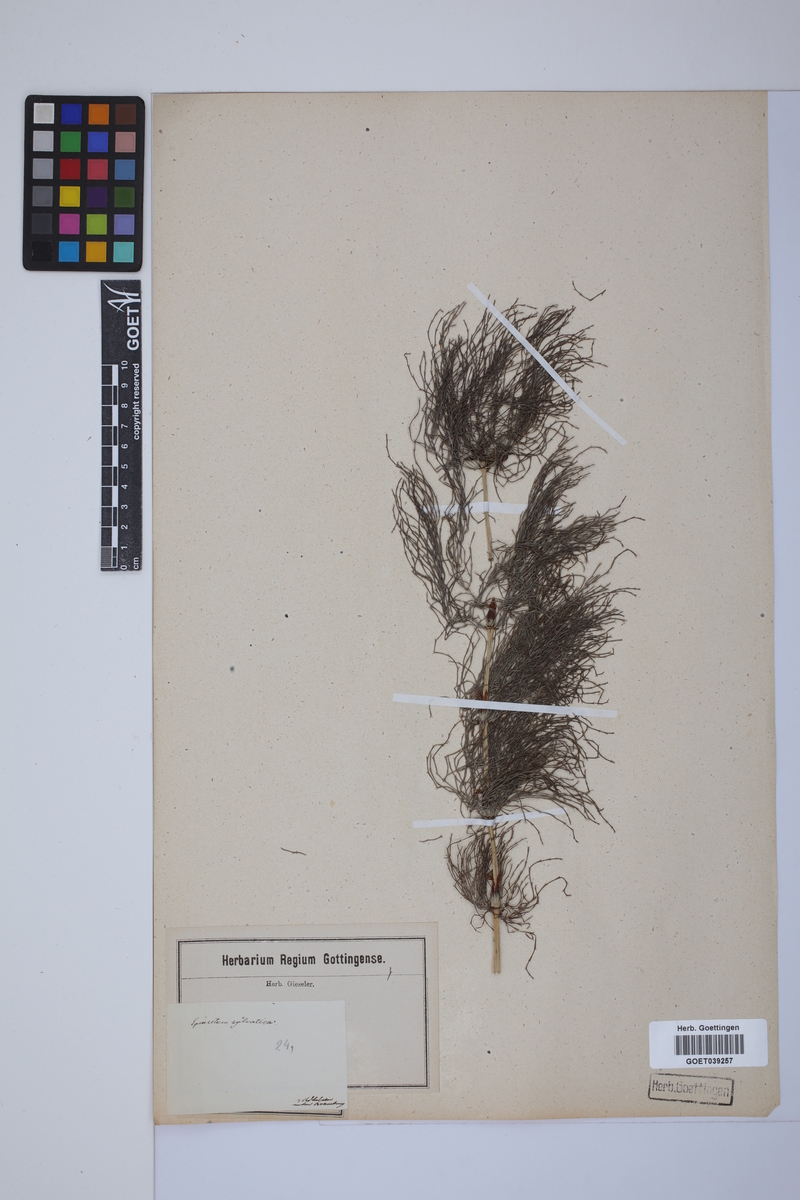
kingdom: Plantae
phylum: Tracheophyta
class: Polypodiopsida
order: Equisetales
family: Equisetaceae
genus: Equisetum
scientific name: Equisetum sylvaticum
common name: Wood horsetail
